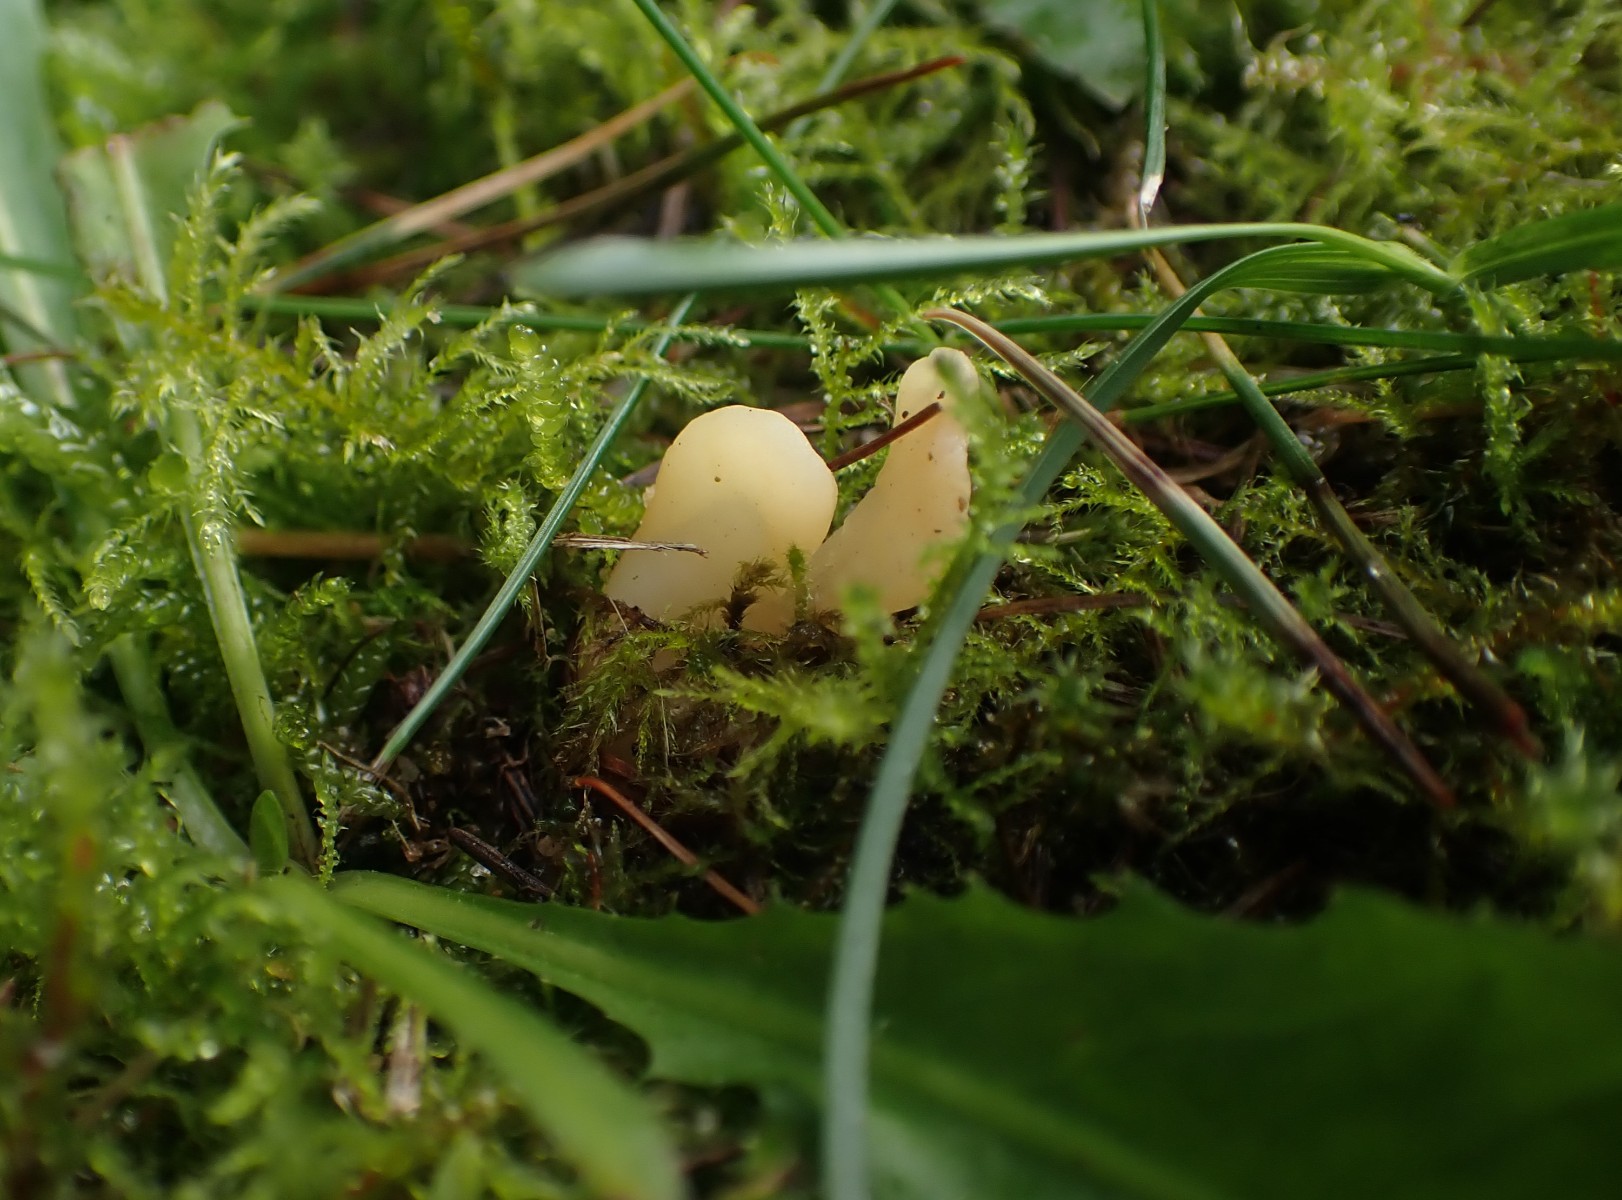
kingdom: Fungi
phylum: Ascomycota
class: Leotiomycetes
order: Rhytismatales
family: Cudoniaceae
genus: Spathularia
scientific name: Spathularia flavida
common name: gul spatelsvamp
